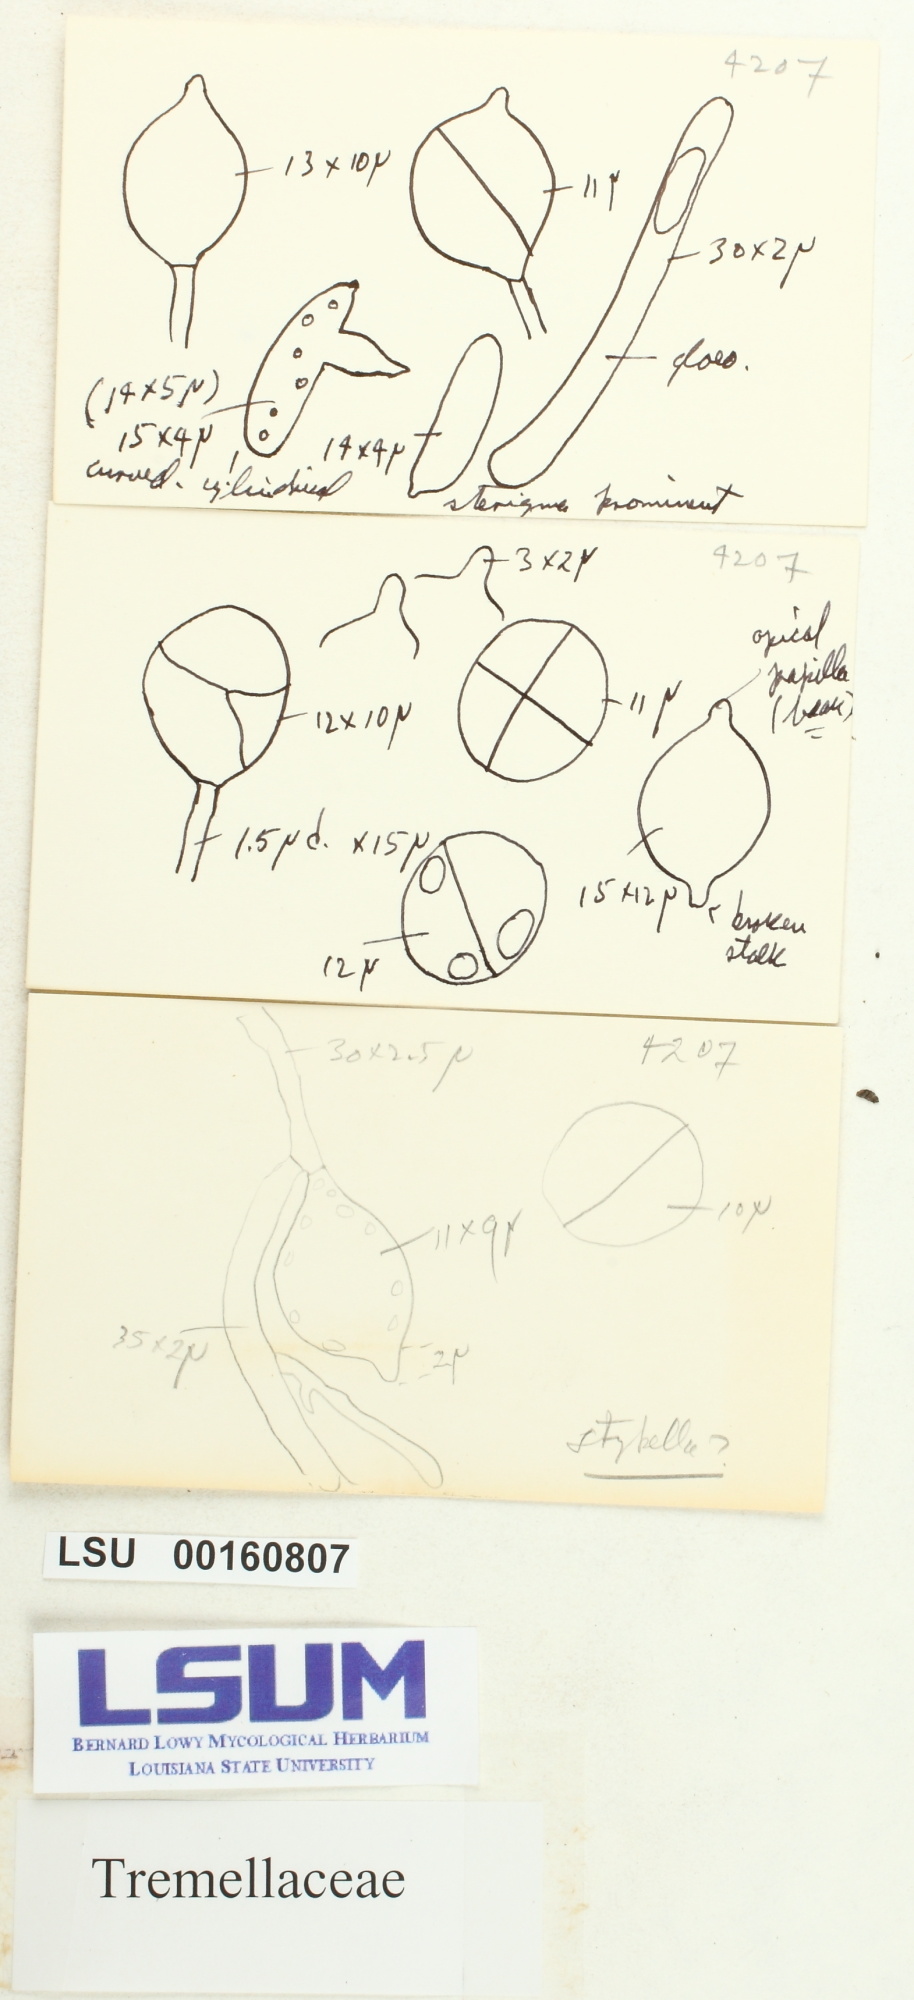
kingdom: Fungi
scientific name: Fungi
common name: Fungi
